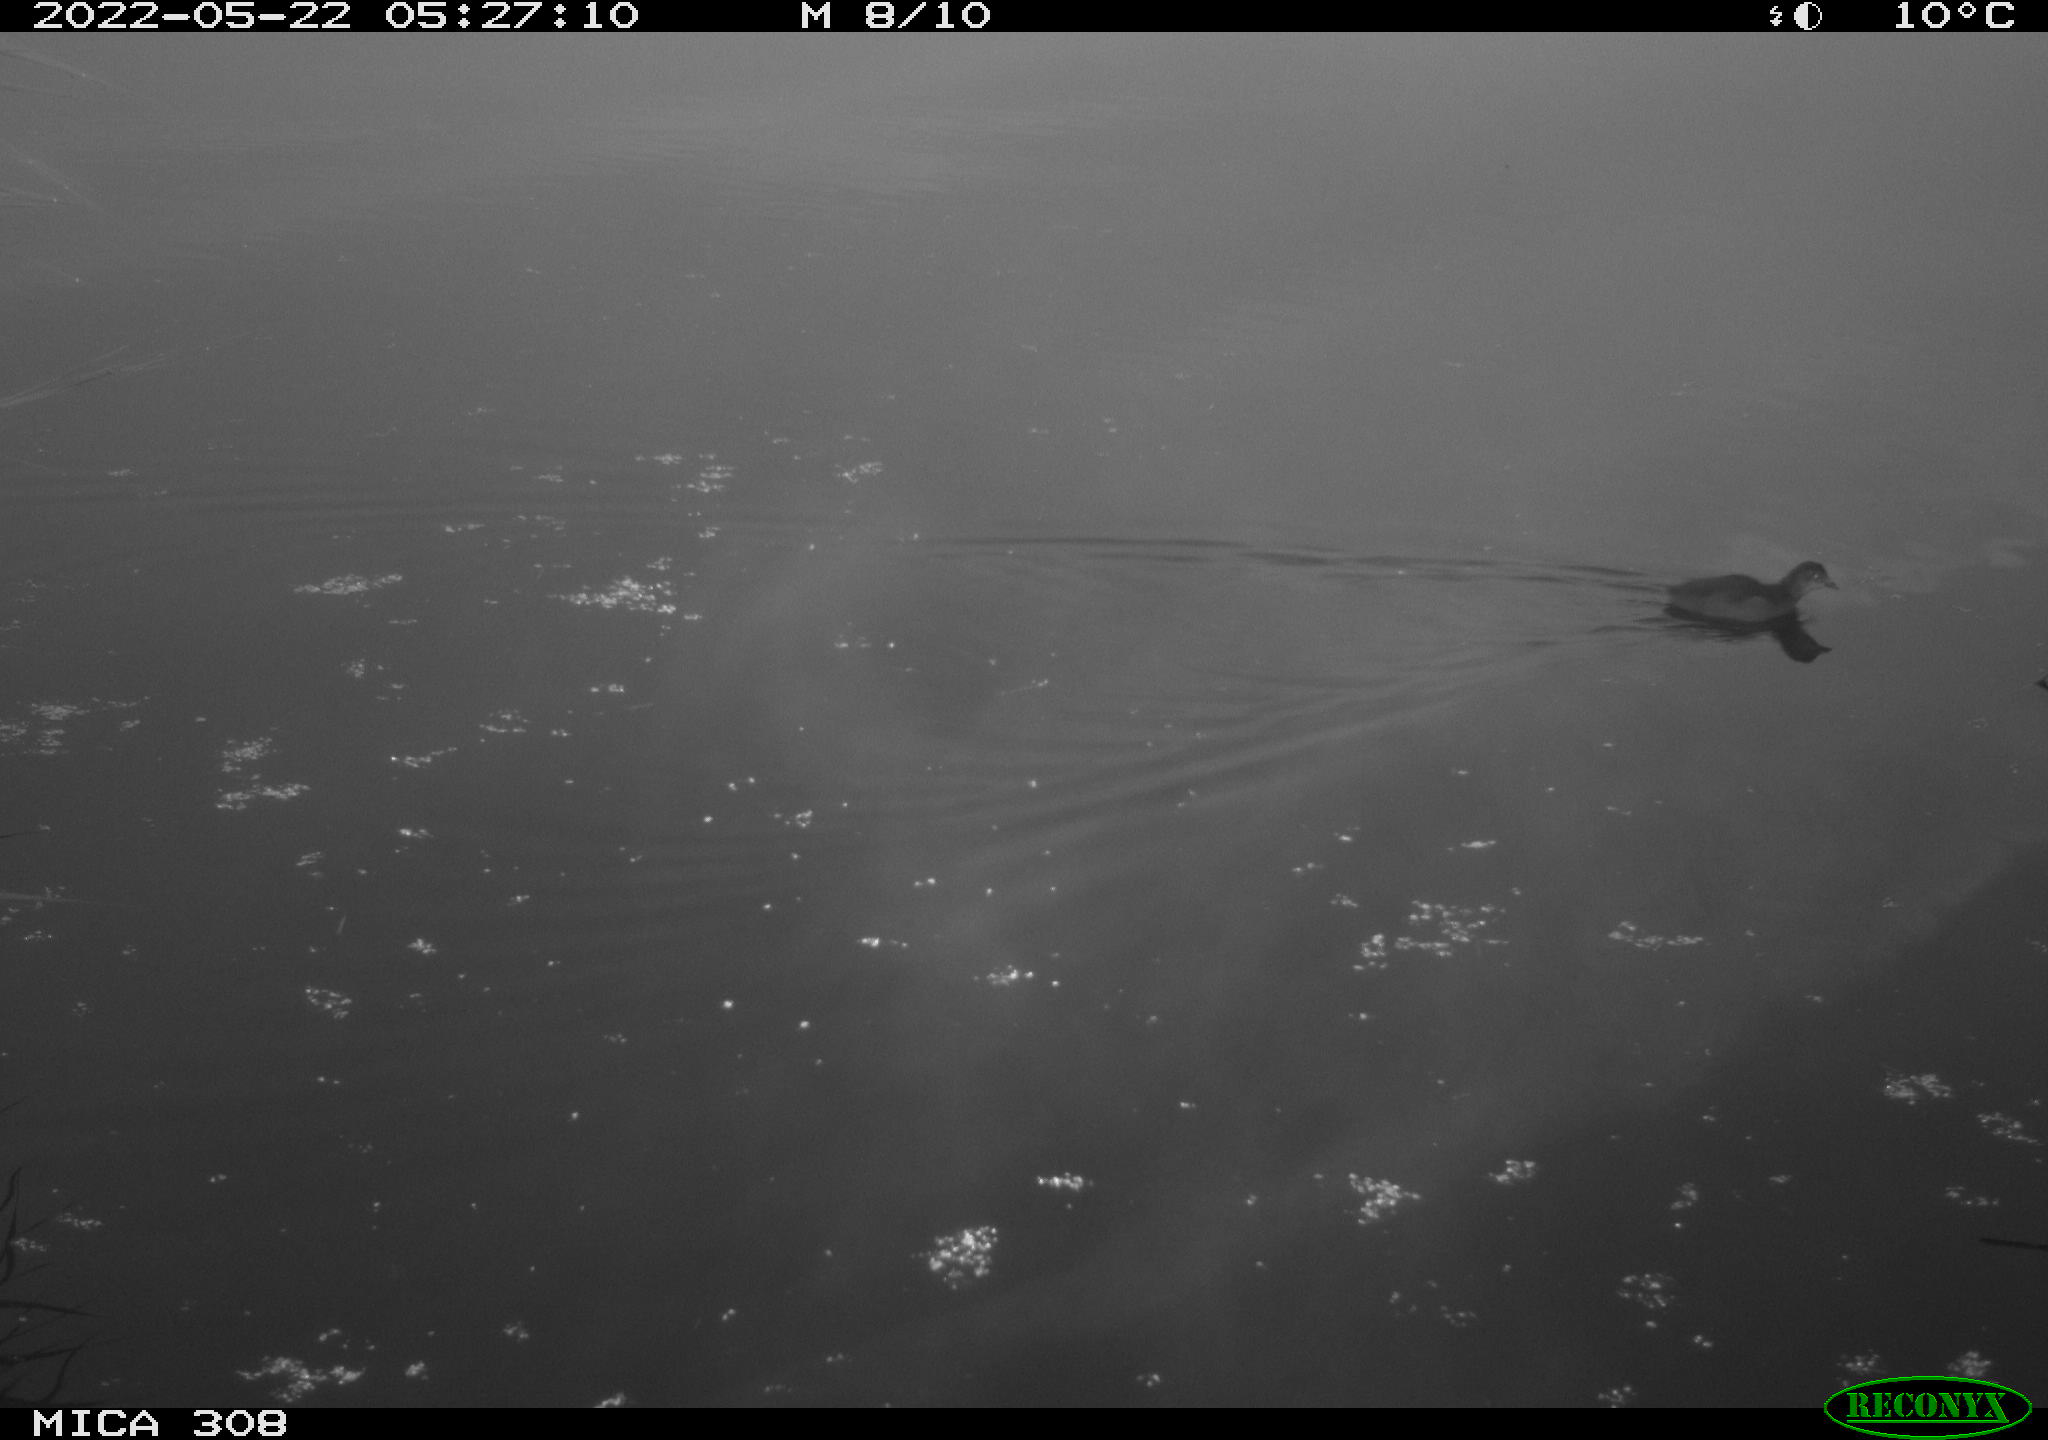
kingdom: Animalia
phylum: Chordata
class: Aves
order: Gruiformes
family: Rallidae
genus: Gallinula
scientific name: Gallinula chloropus
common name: Common moorhen
